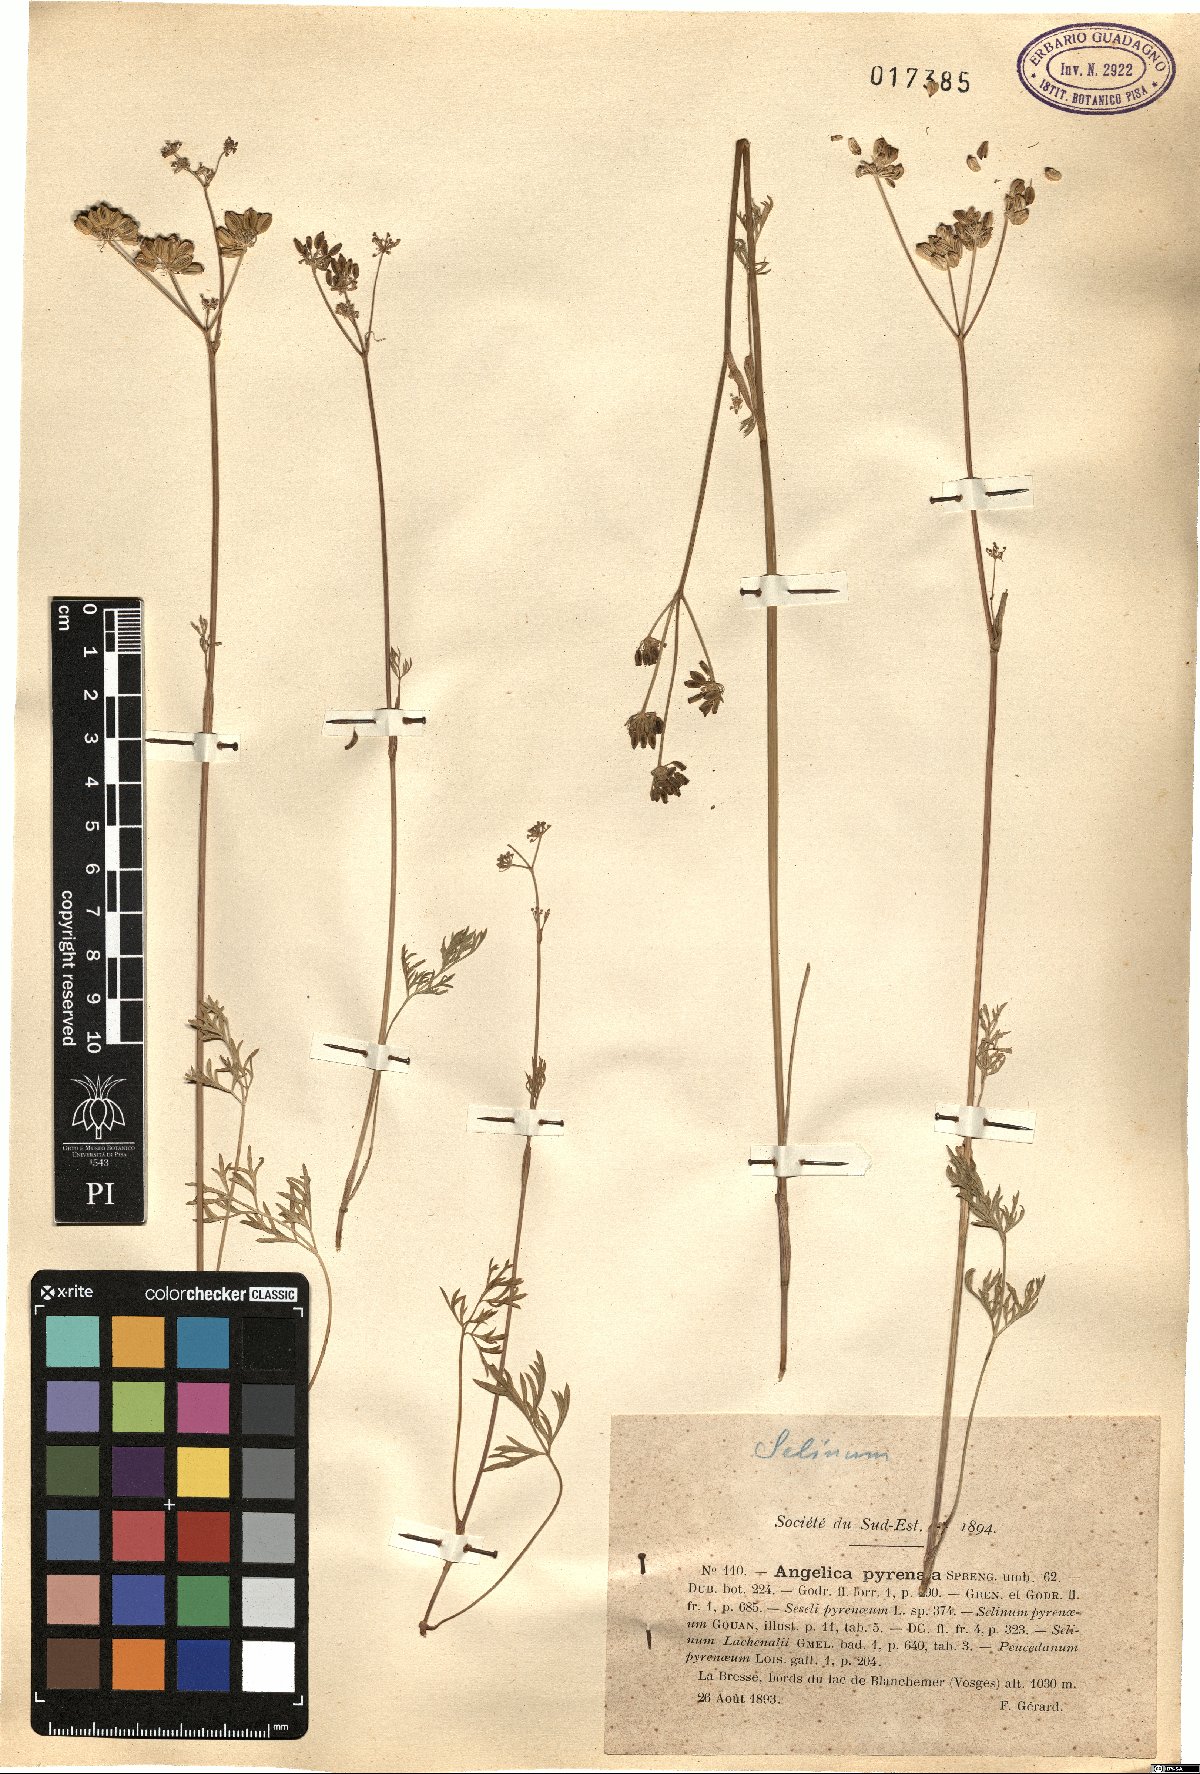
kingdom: Plantae
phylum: Tracheophyta
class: Magnoliopsida
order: Apiales
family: Apiaceae
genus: Epikeros
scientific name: Epikeros pyrenaeus
